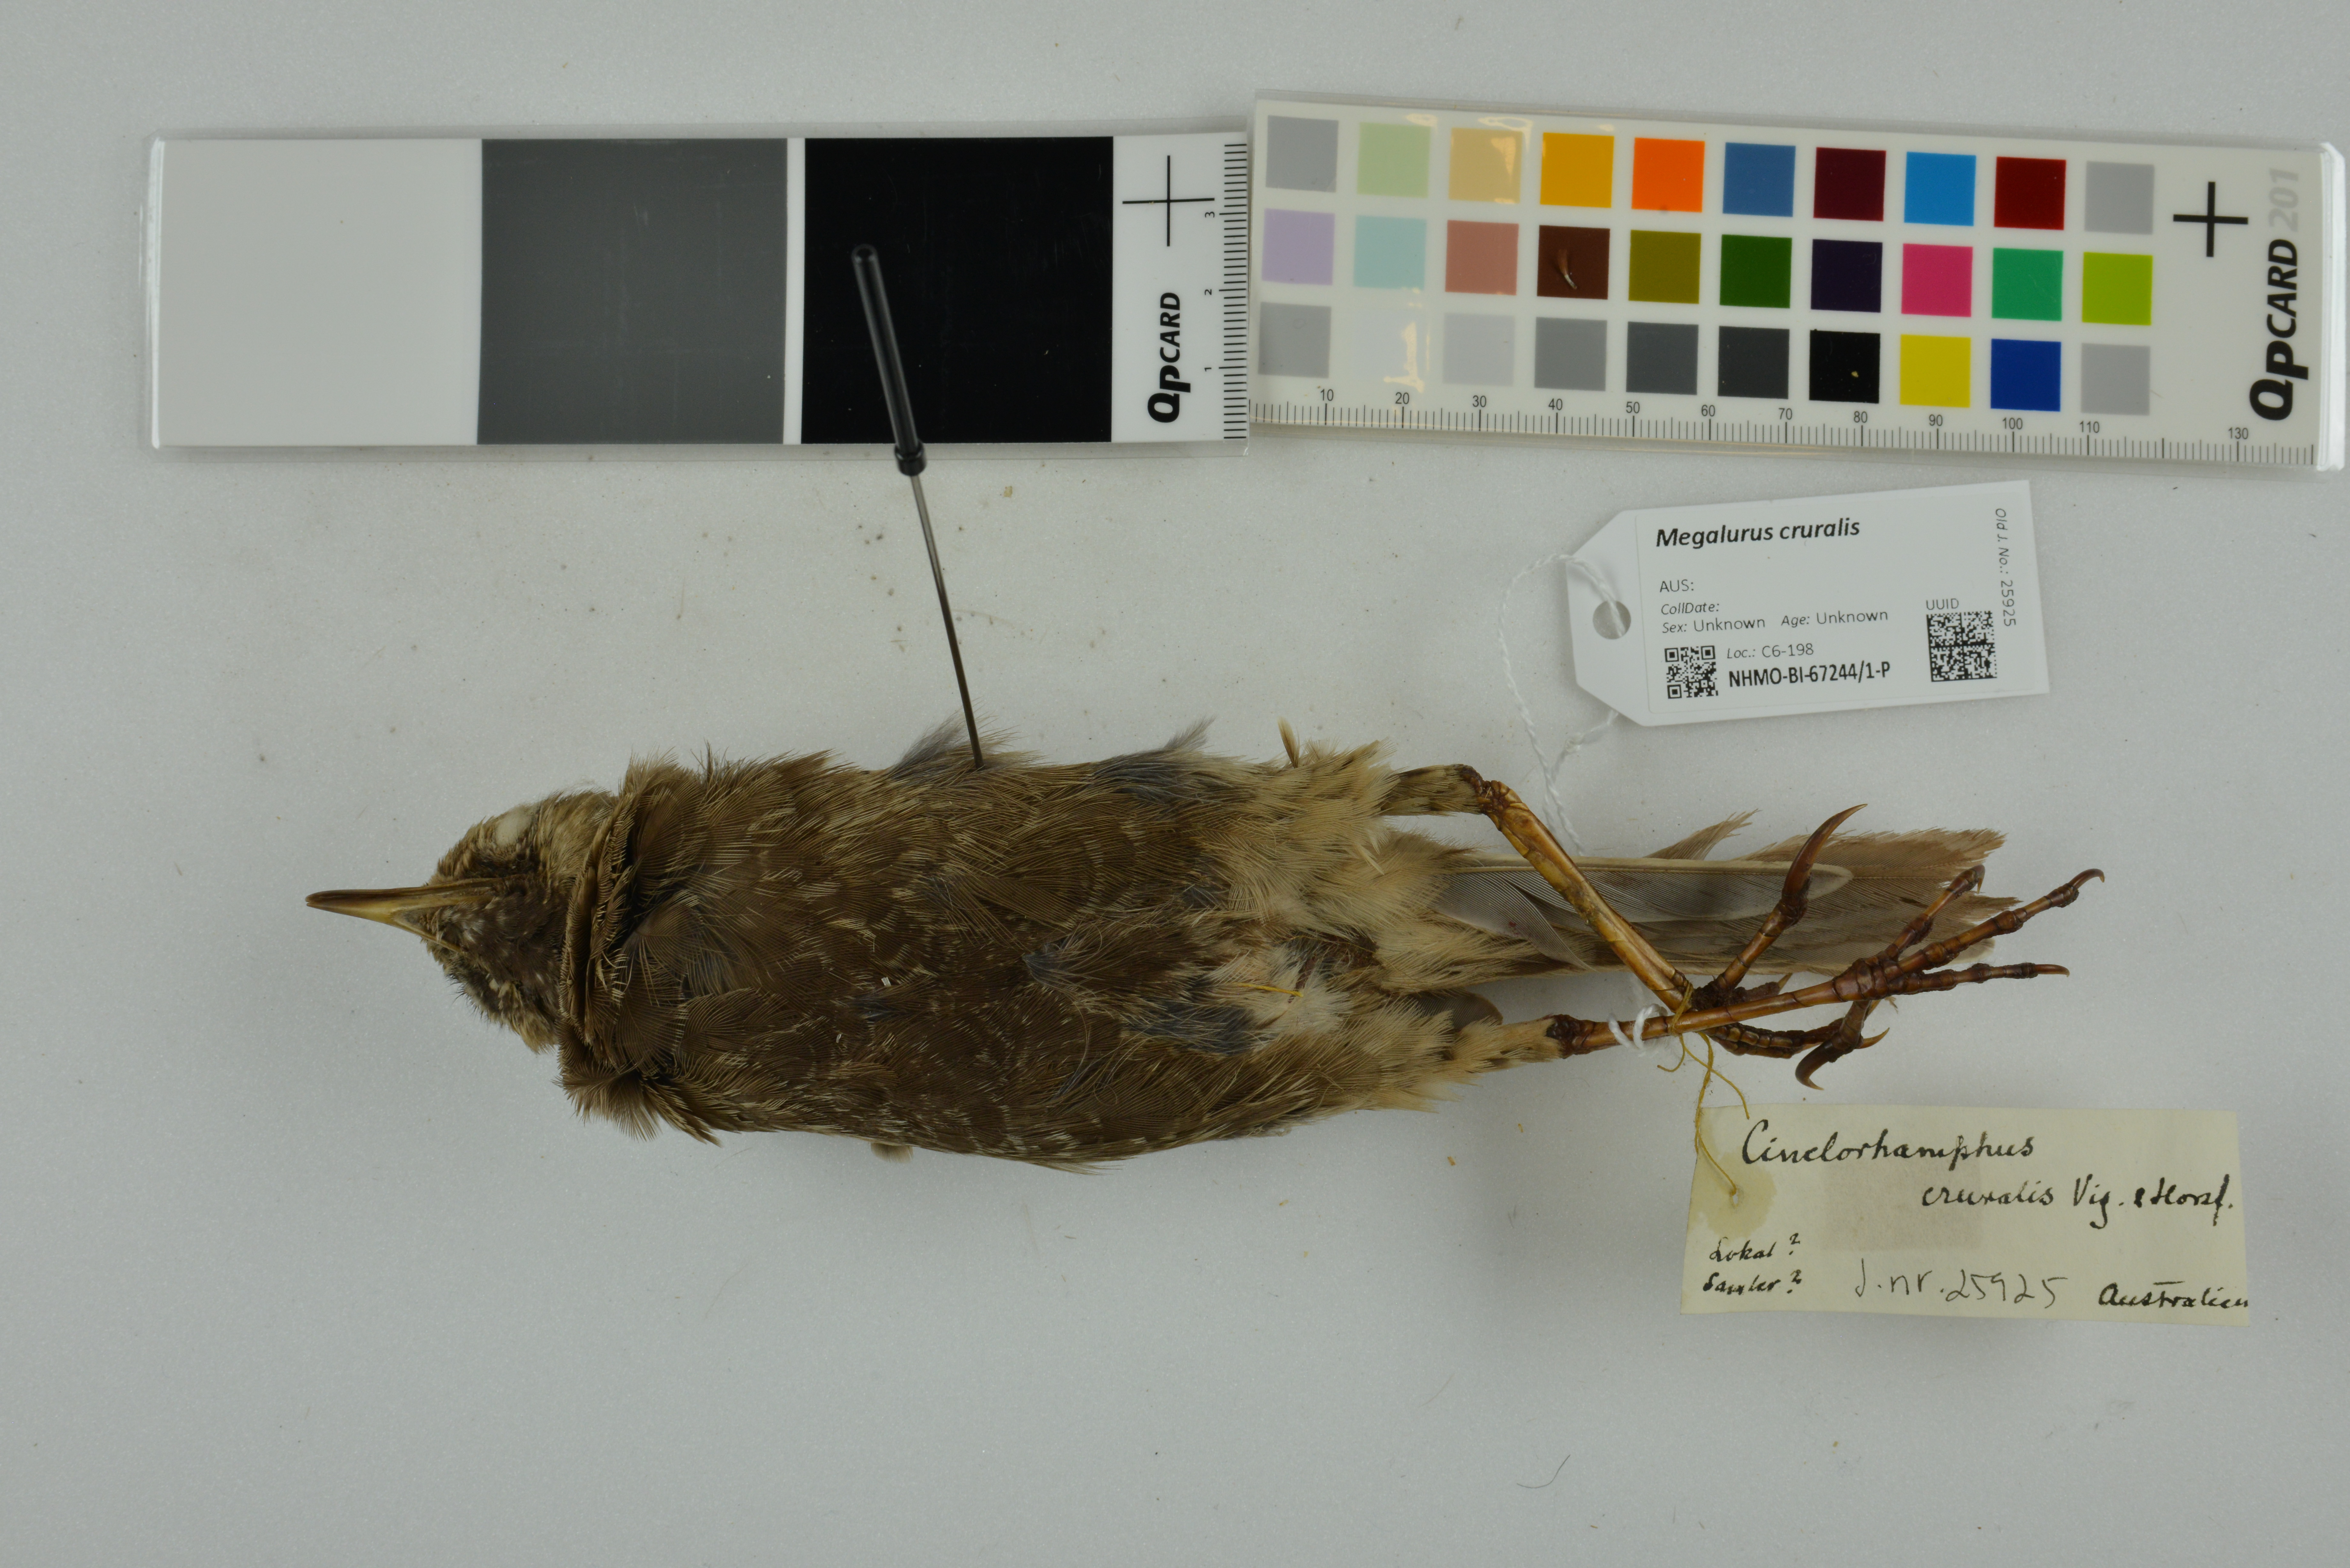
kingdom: Animalia
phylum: Chordata
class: Aves
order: Passeriformes
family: Locustellidae
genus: Megalurus
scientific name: Megalurus cruralis
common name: Brown songlark
